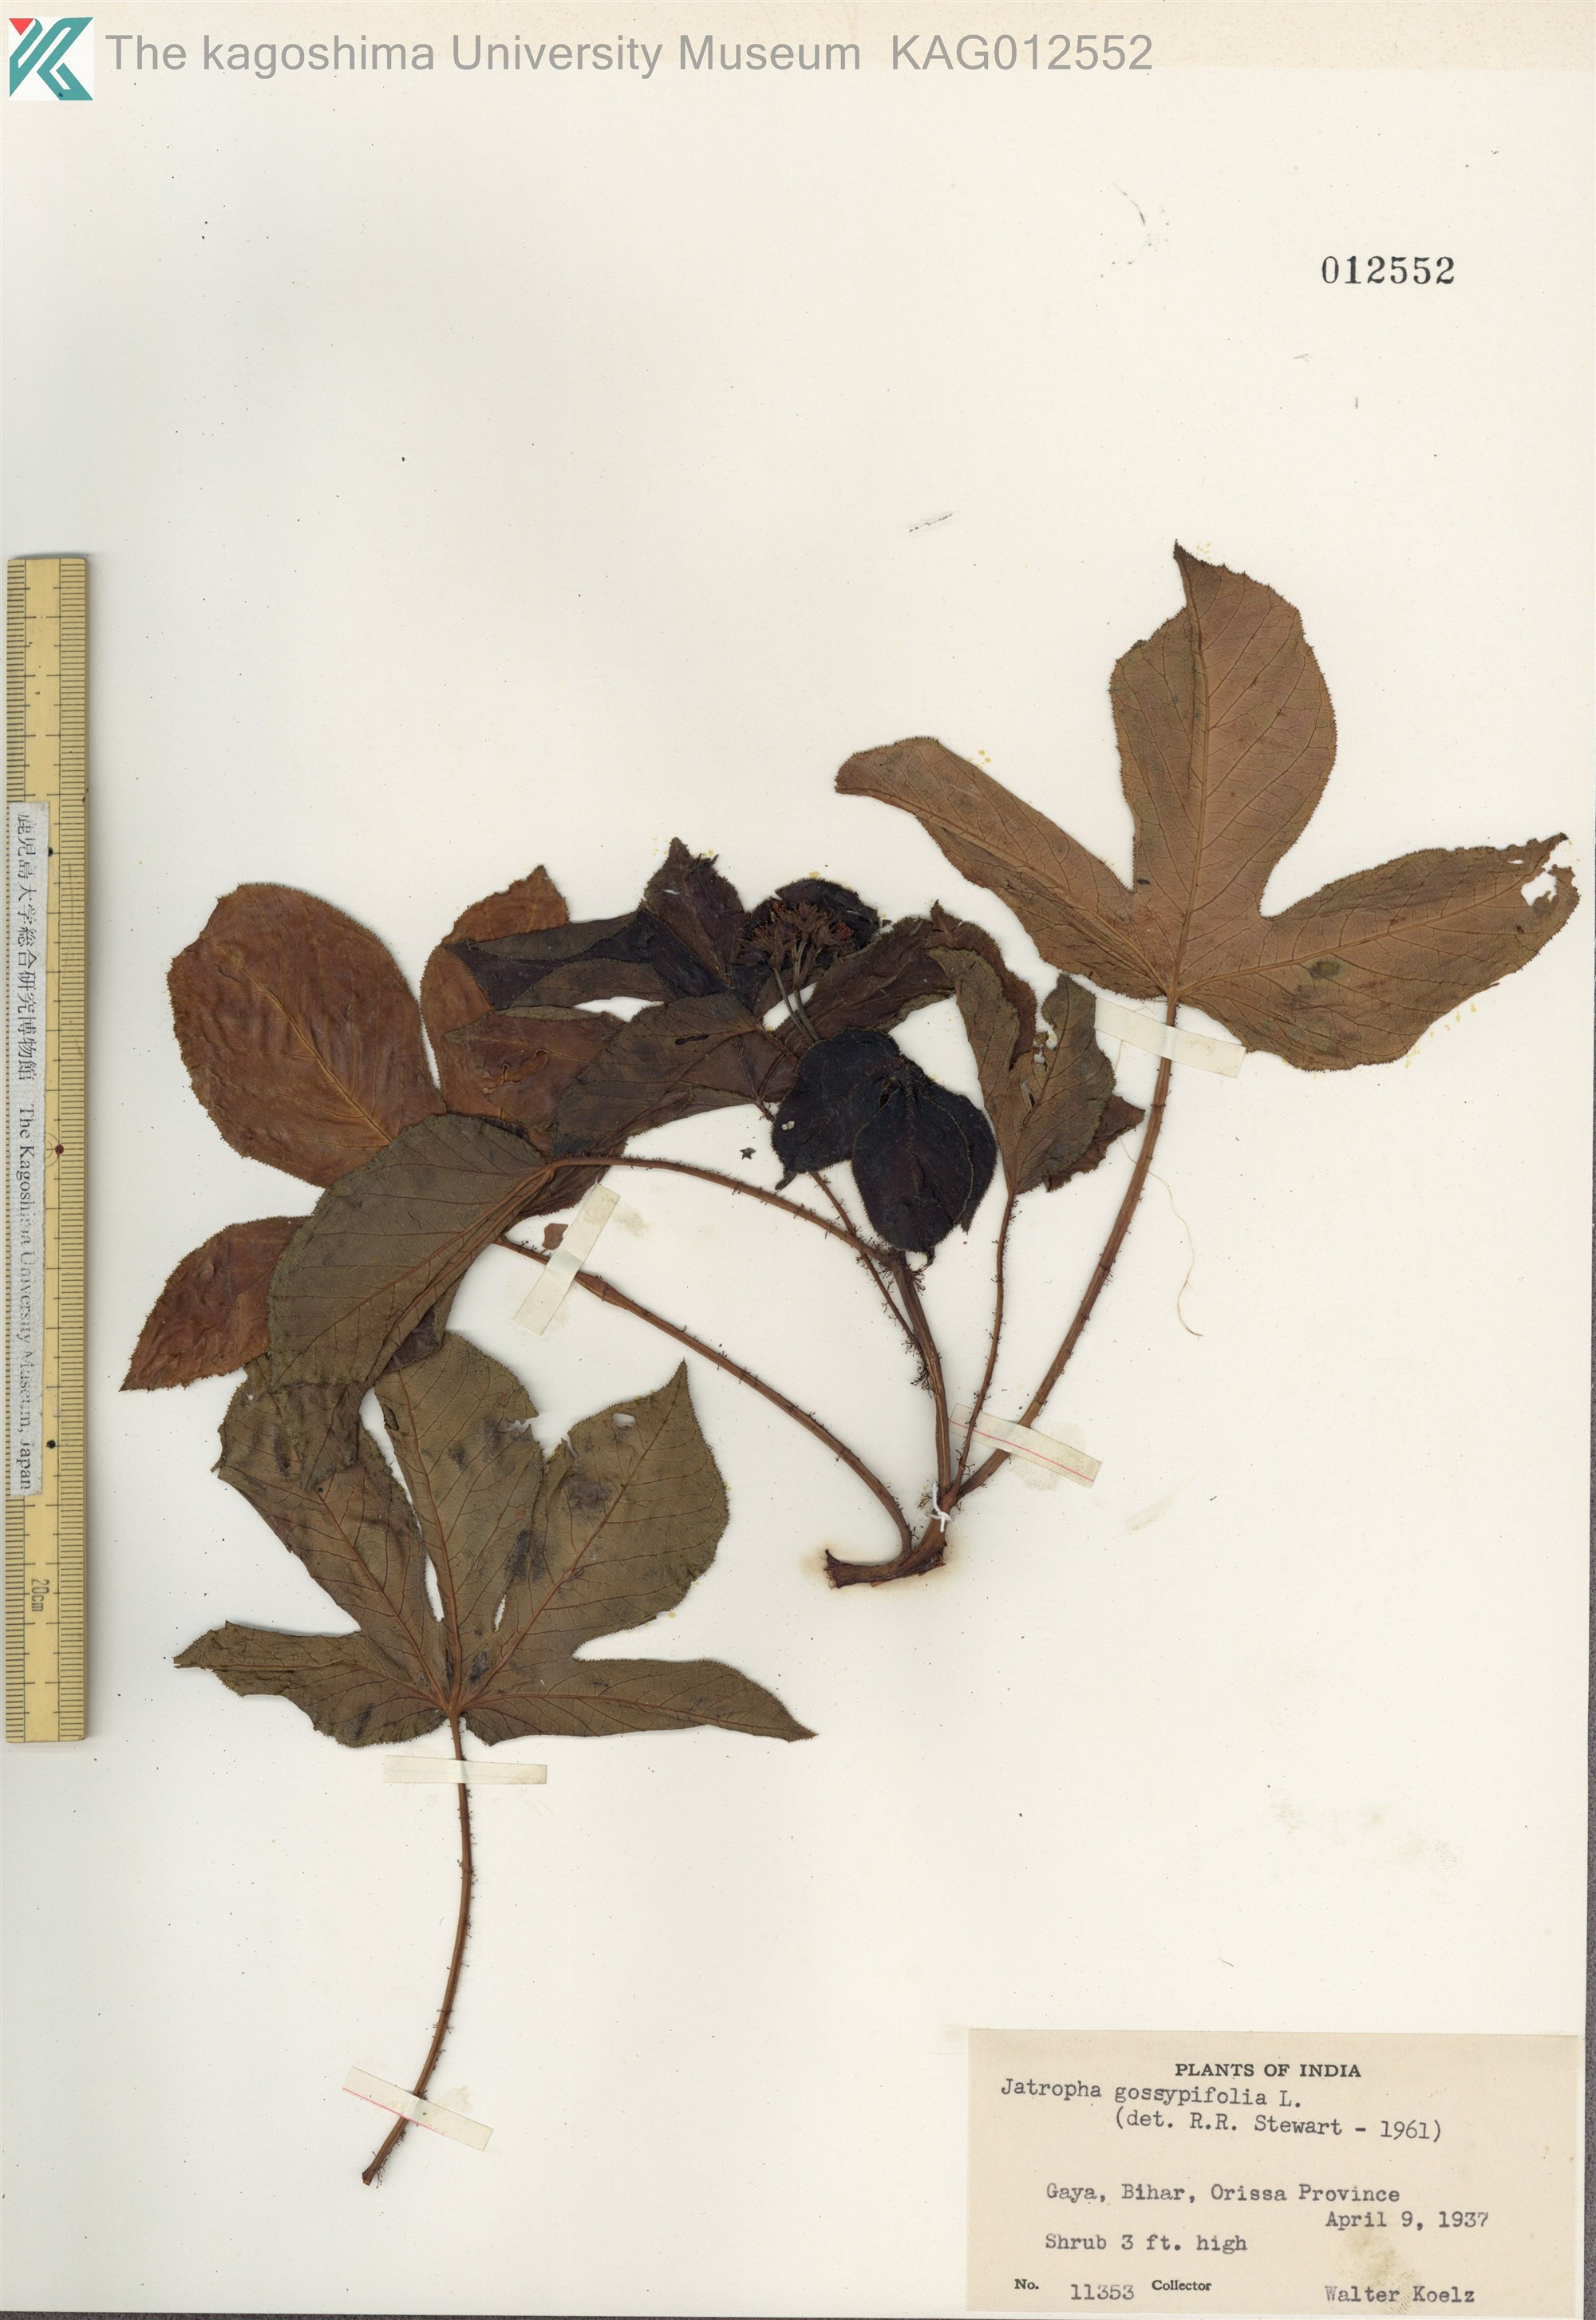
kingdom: Plantae
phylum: Tracheophyta
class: Magnoliopsida
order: Malpighiales
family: Euphorbiaceae
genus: Jatropha
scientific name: Jatropha gossypiifolia
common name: Bellyache bush
